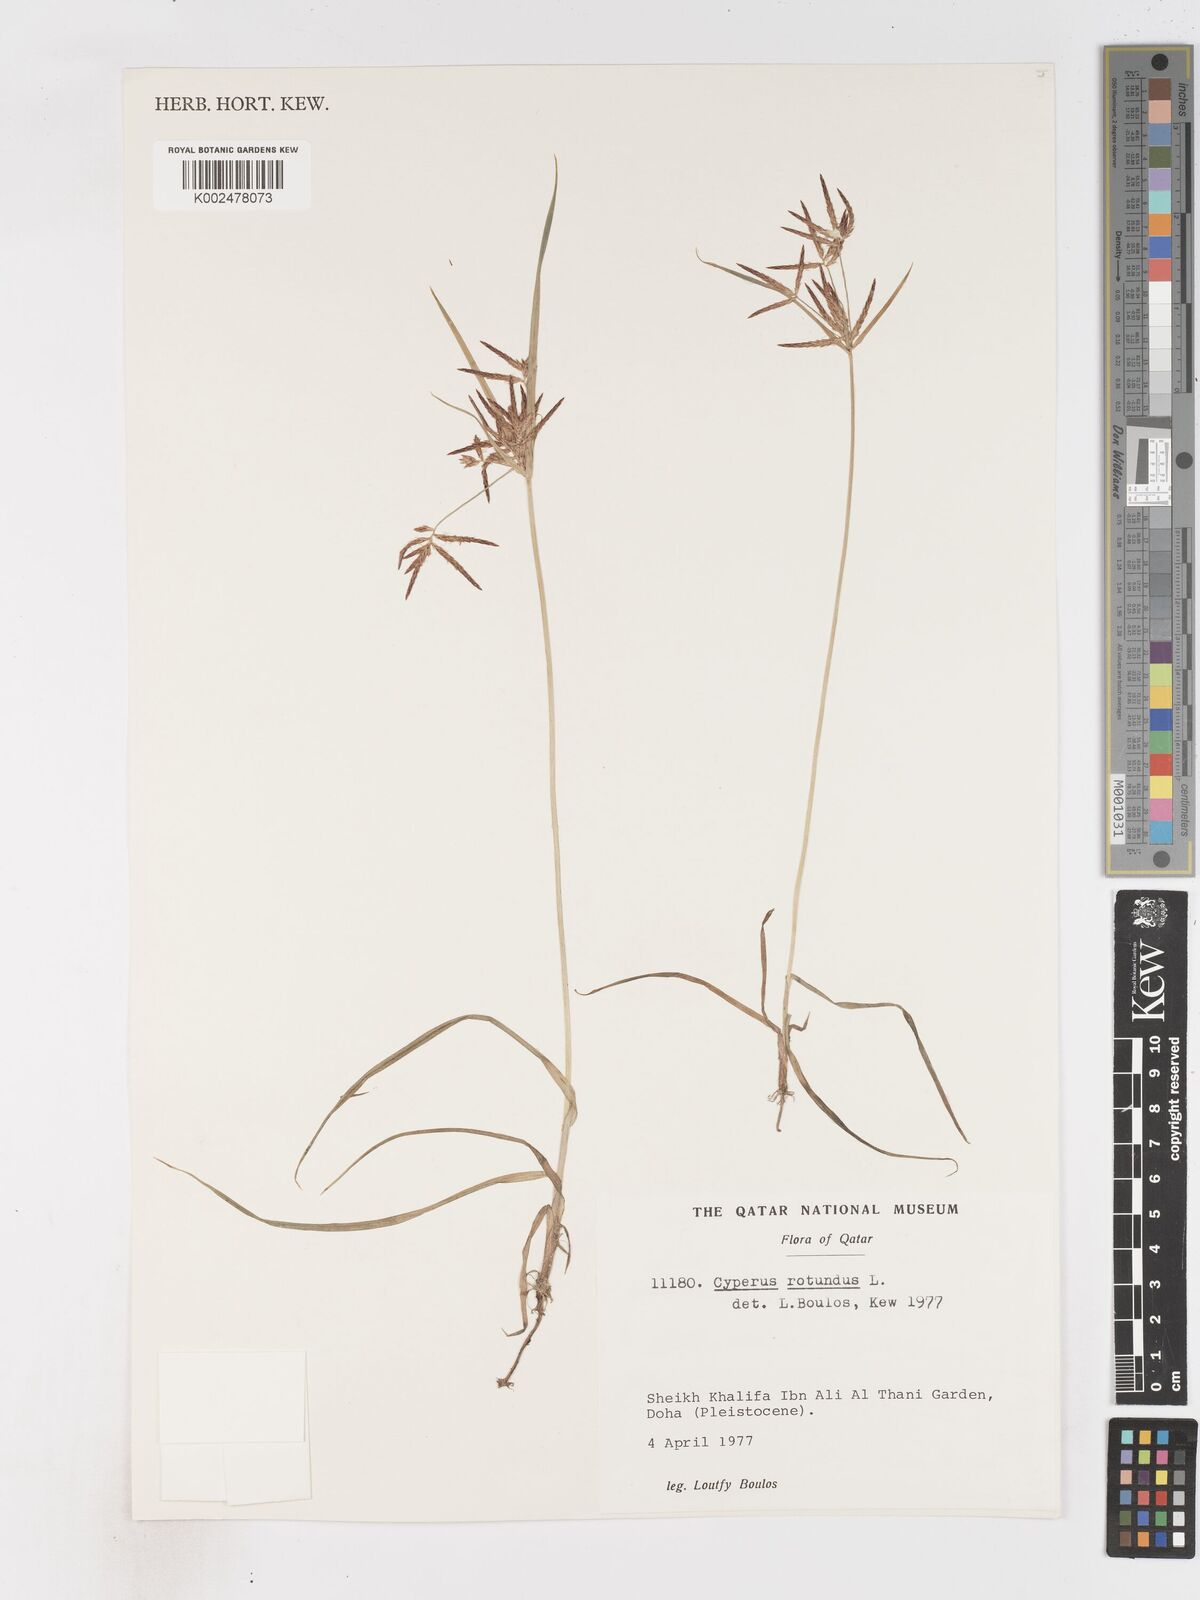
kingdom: Plantae
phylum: Tracheophyta
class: Liliopsida
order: Poales
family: Cyperaceae
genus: Cyperus
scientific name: Cyperus rotundus
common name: Nutgrass
